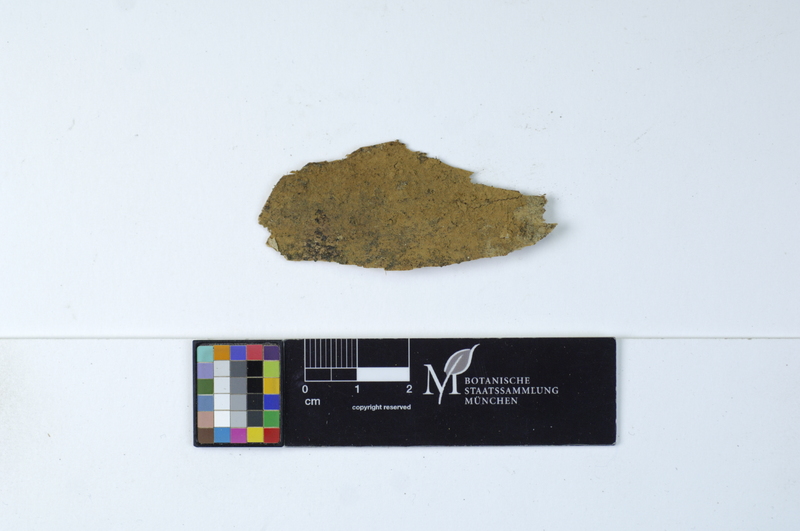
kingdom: Fungi
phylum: Basidiomycota
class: Agaricomycetes
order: Cantharellales
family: Botryobasidiaceae
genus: Botryobasidium
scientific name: Botryobasidium isabellinum
